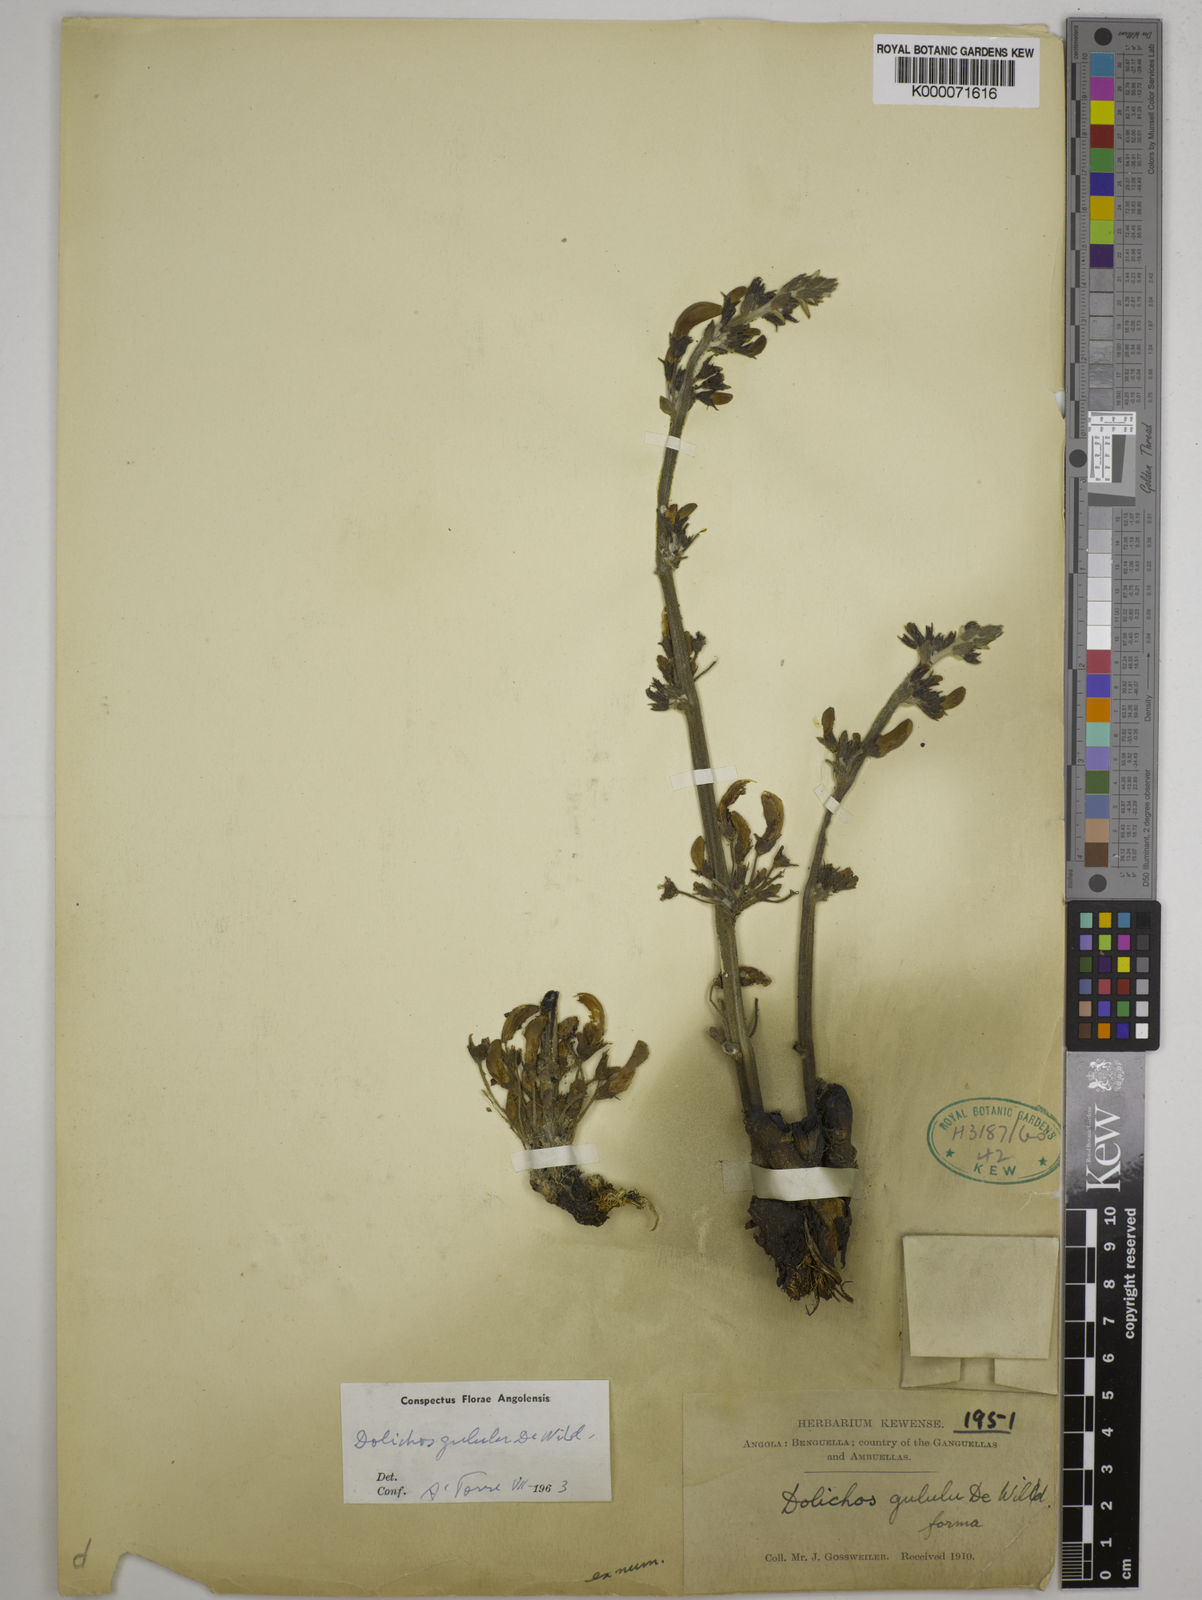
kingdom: Plantae
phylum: Tracheophyta
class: Magnoliopsida
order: Fabales
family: Fabaceae
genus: Dolichos
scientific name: Dolichos gululu
